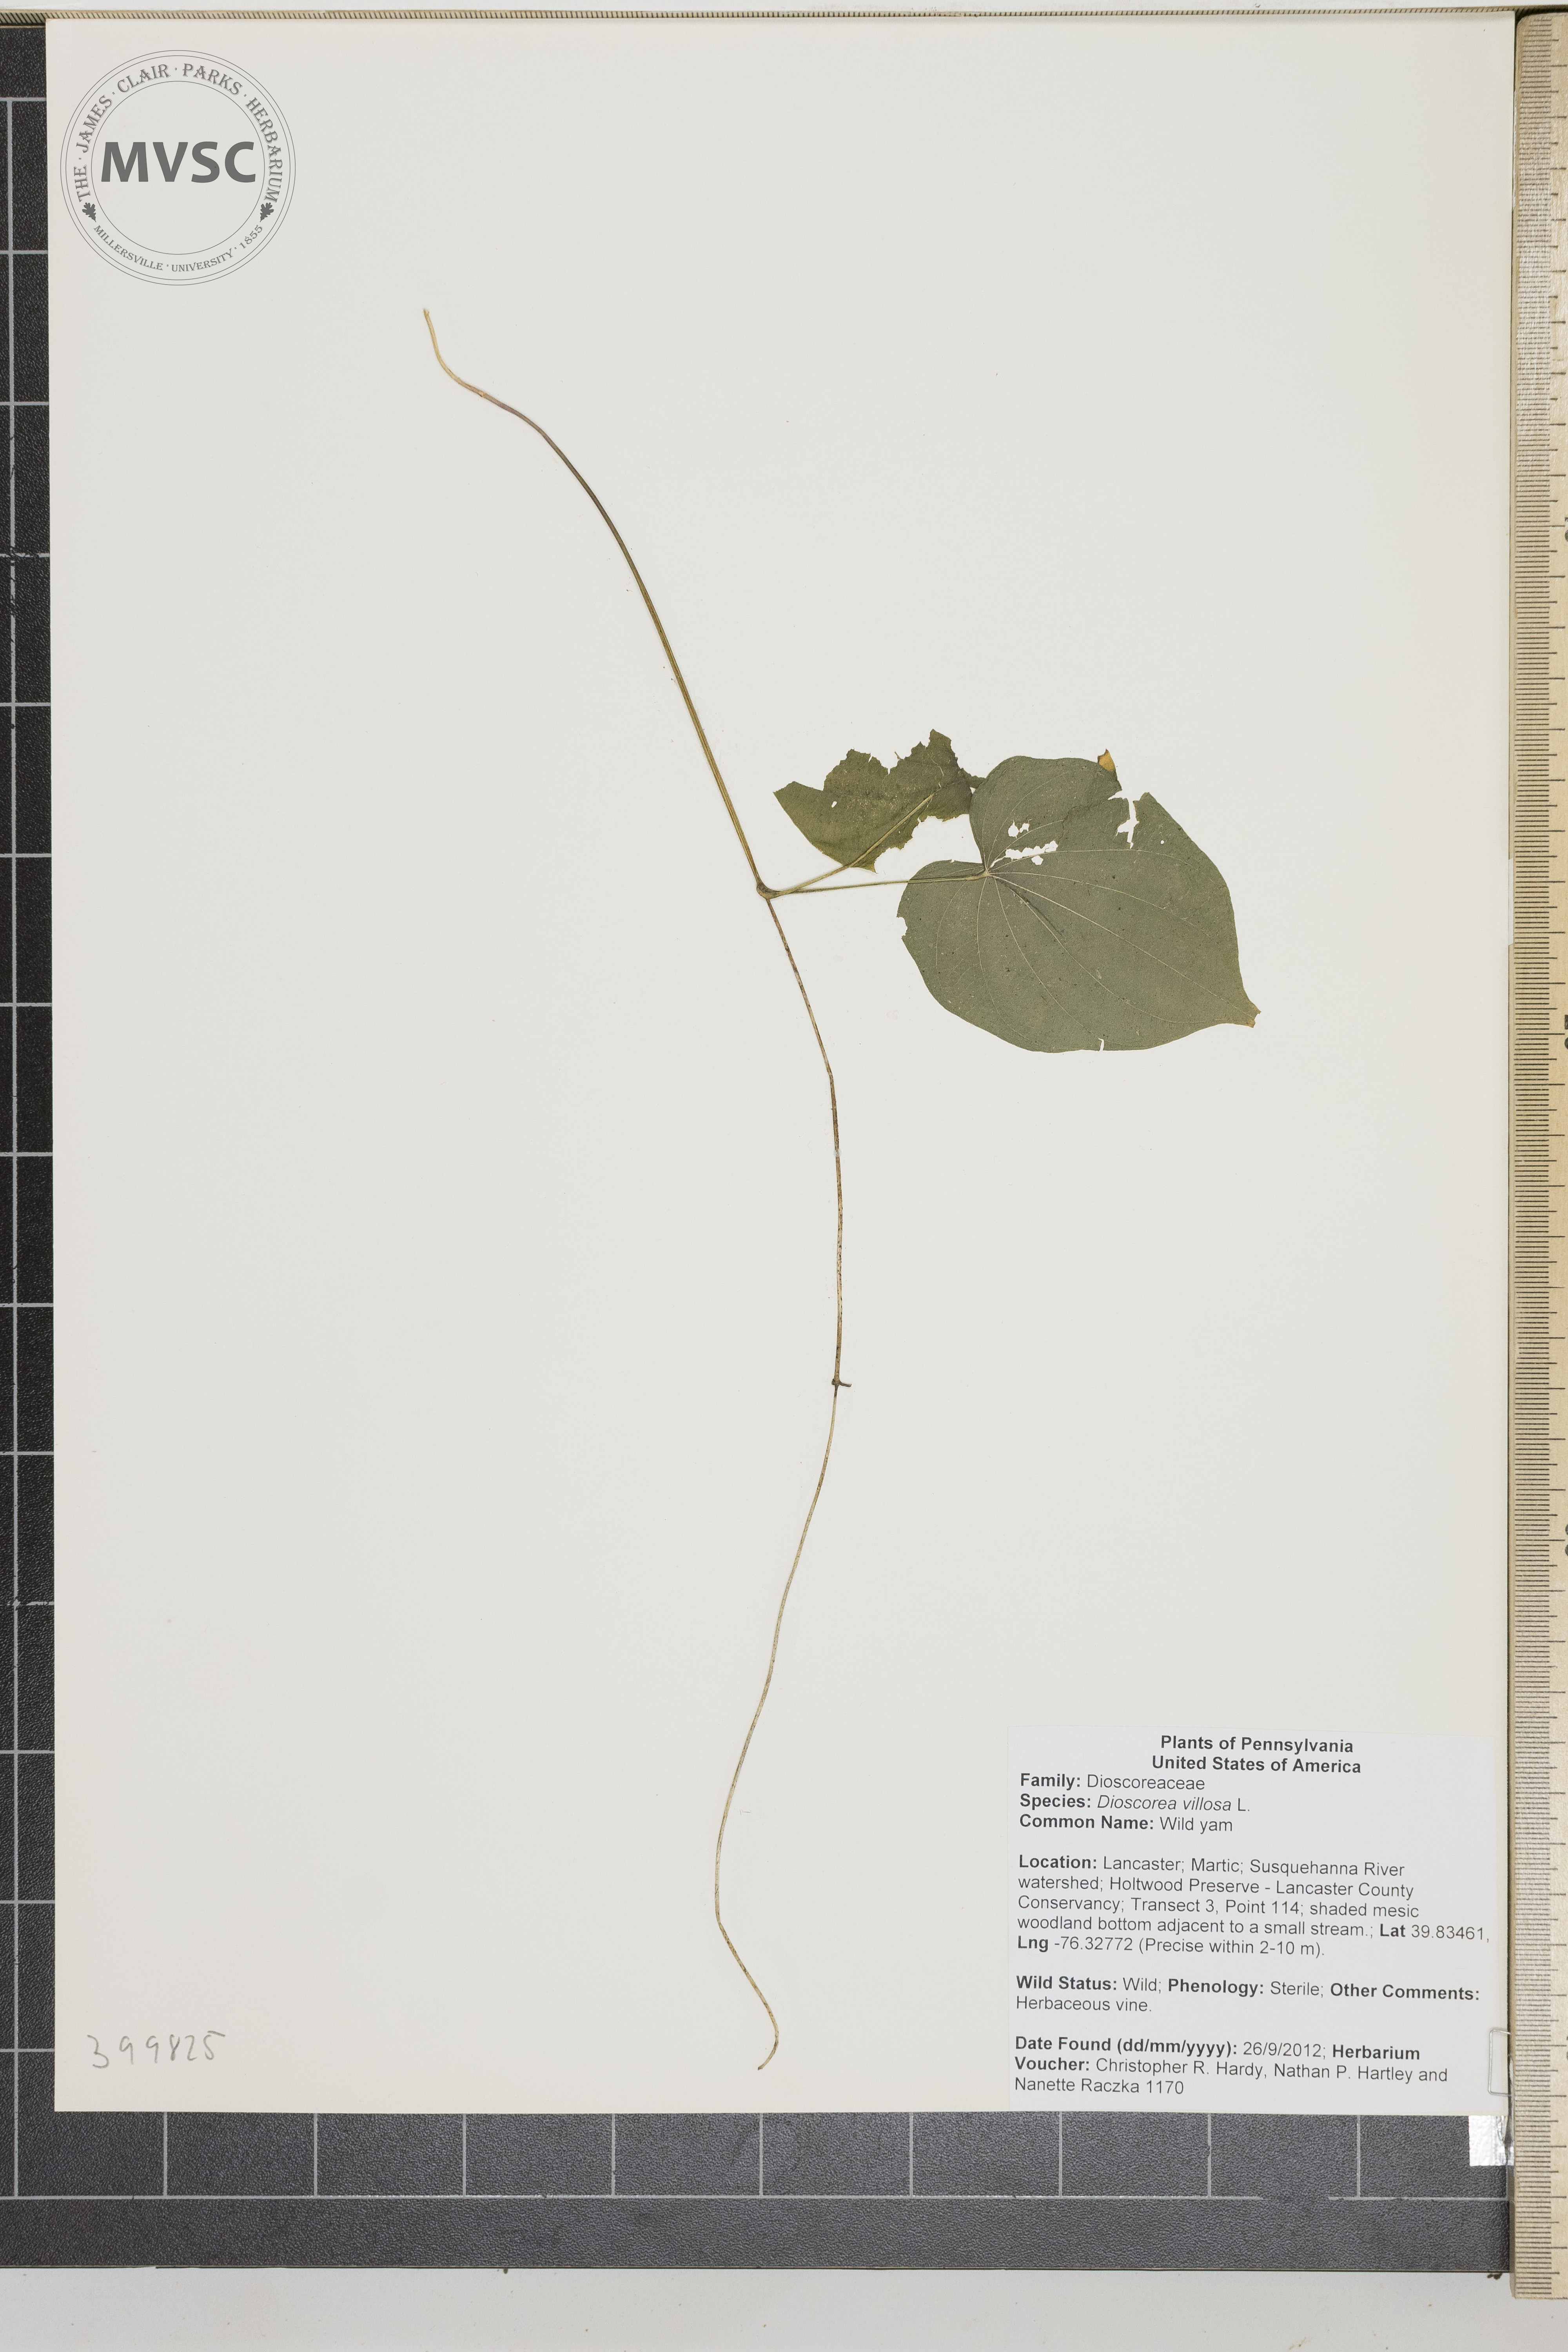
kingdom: Plantae
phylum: Tracheophyta
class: Liliopsida
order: Dioscoreales
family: Dioscoreaceae
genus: Dioscorea
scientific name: Dioscorea villosa
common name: Wild yam
